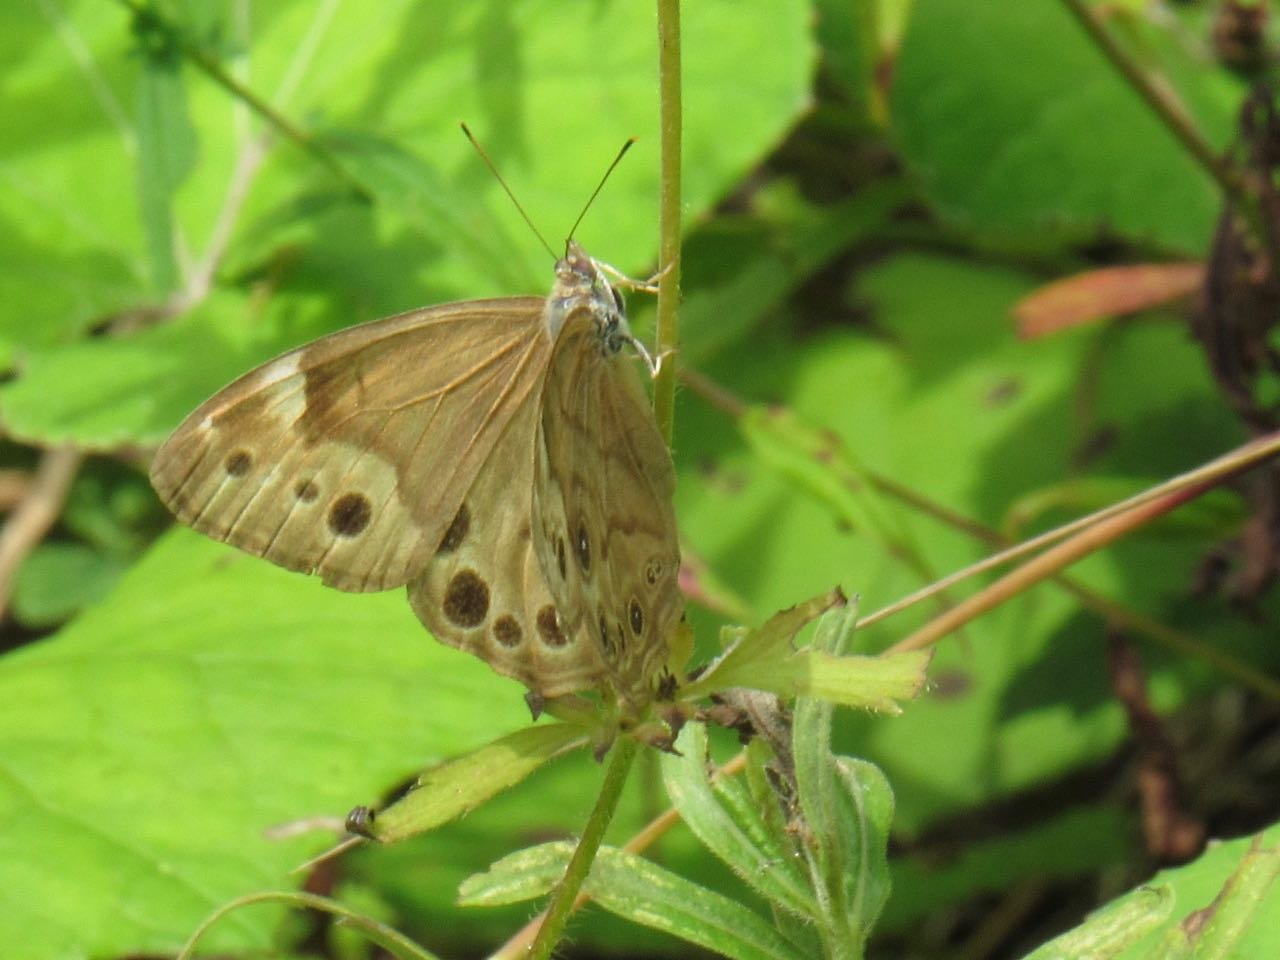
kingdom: Animalia
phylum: Arthropoda
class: Insecta
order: Lepidoptera
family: Nymphalidae
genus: Lethe
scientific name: Lethe anthedon
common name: Northern Pearly-Eye
